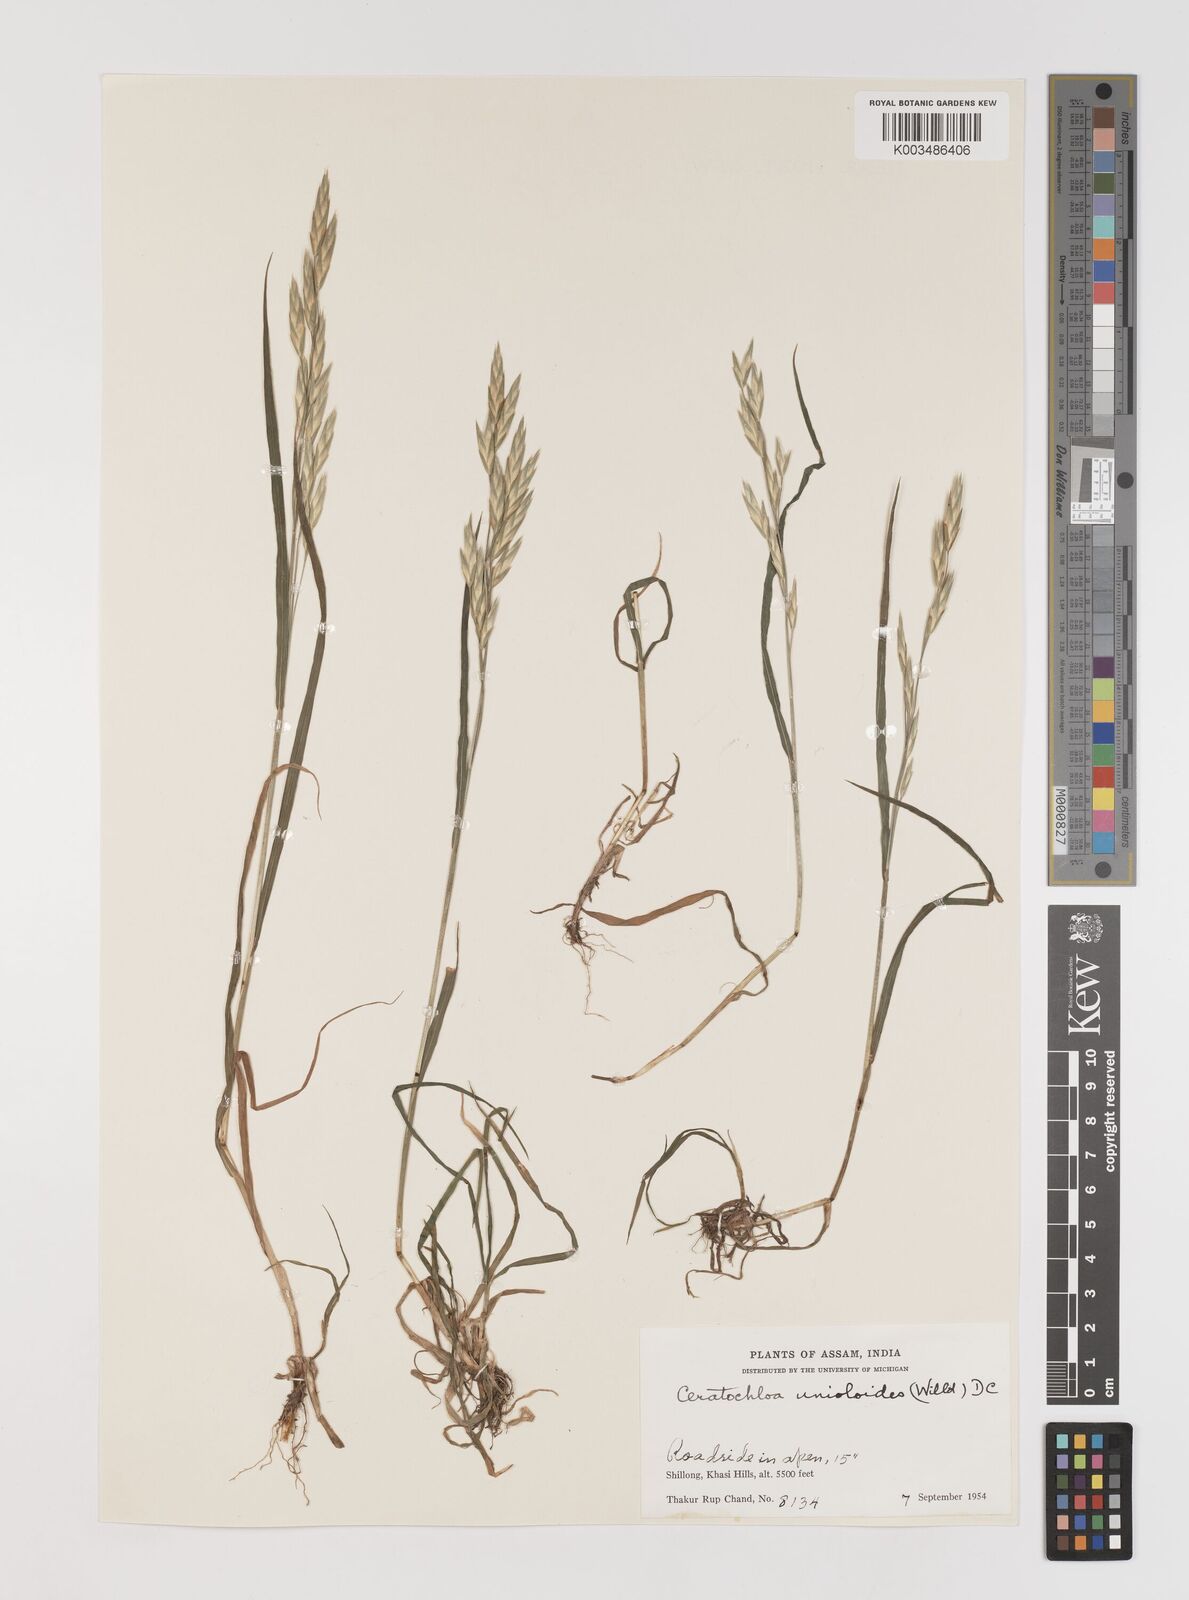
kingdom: Plantae
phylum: Tracheophyta
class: Liliopsida
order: Poales
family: Poaceae
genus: Bromus
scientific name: Bromus catharticus
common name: Rescuegrass
